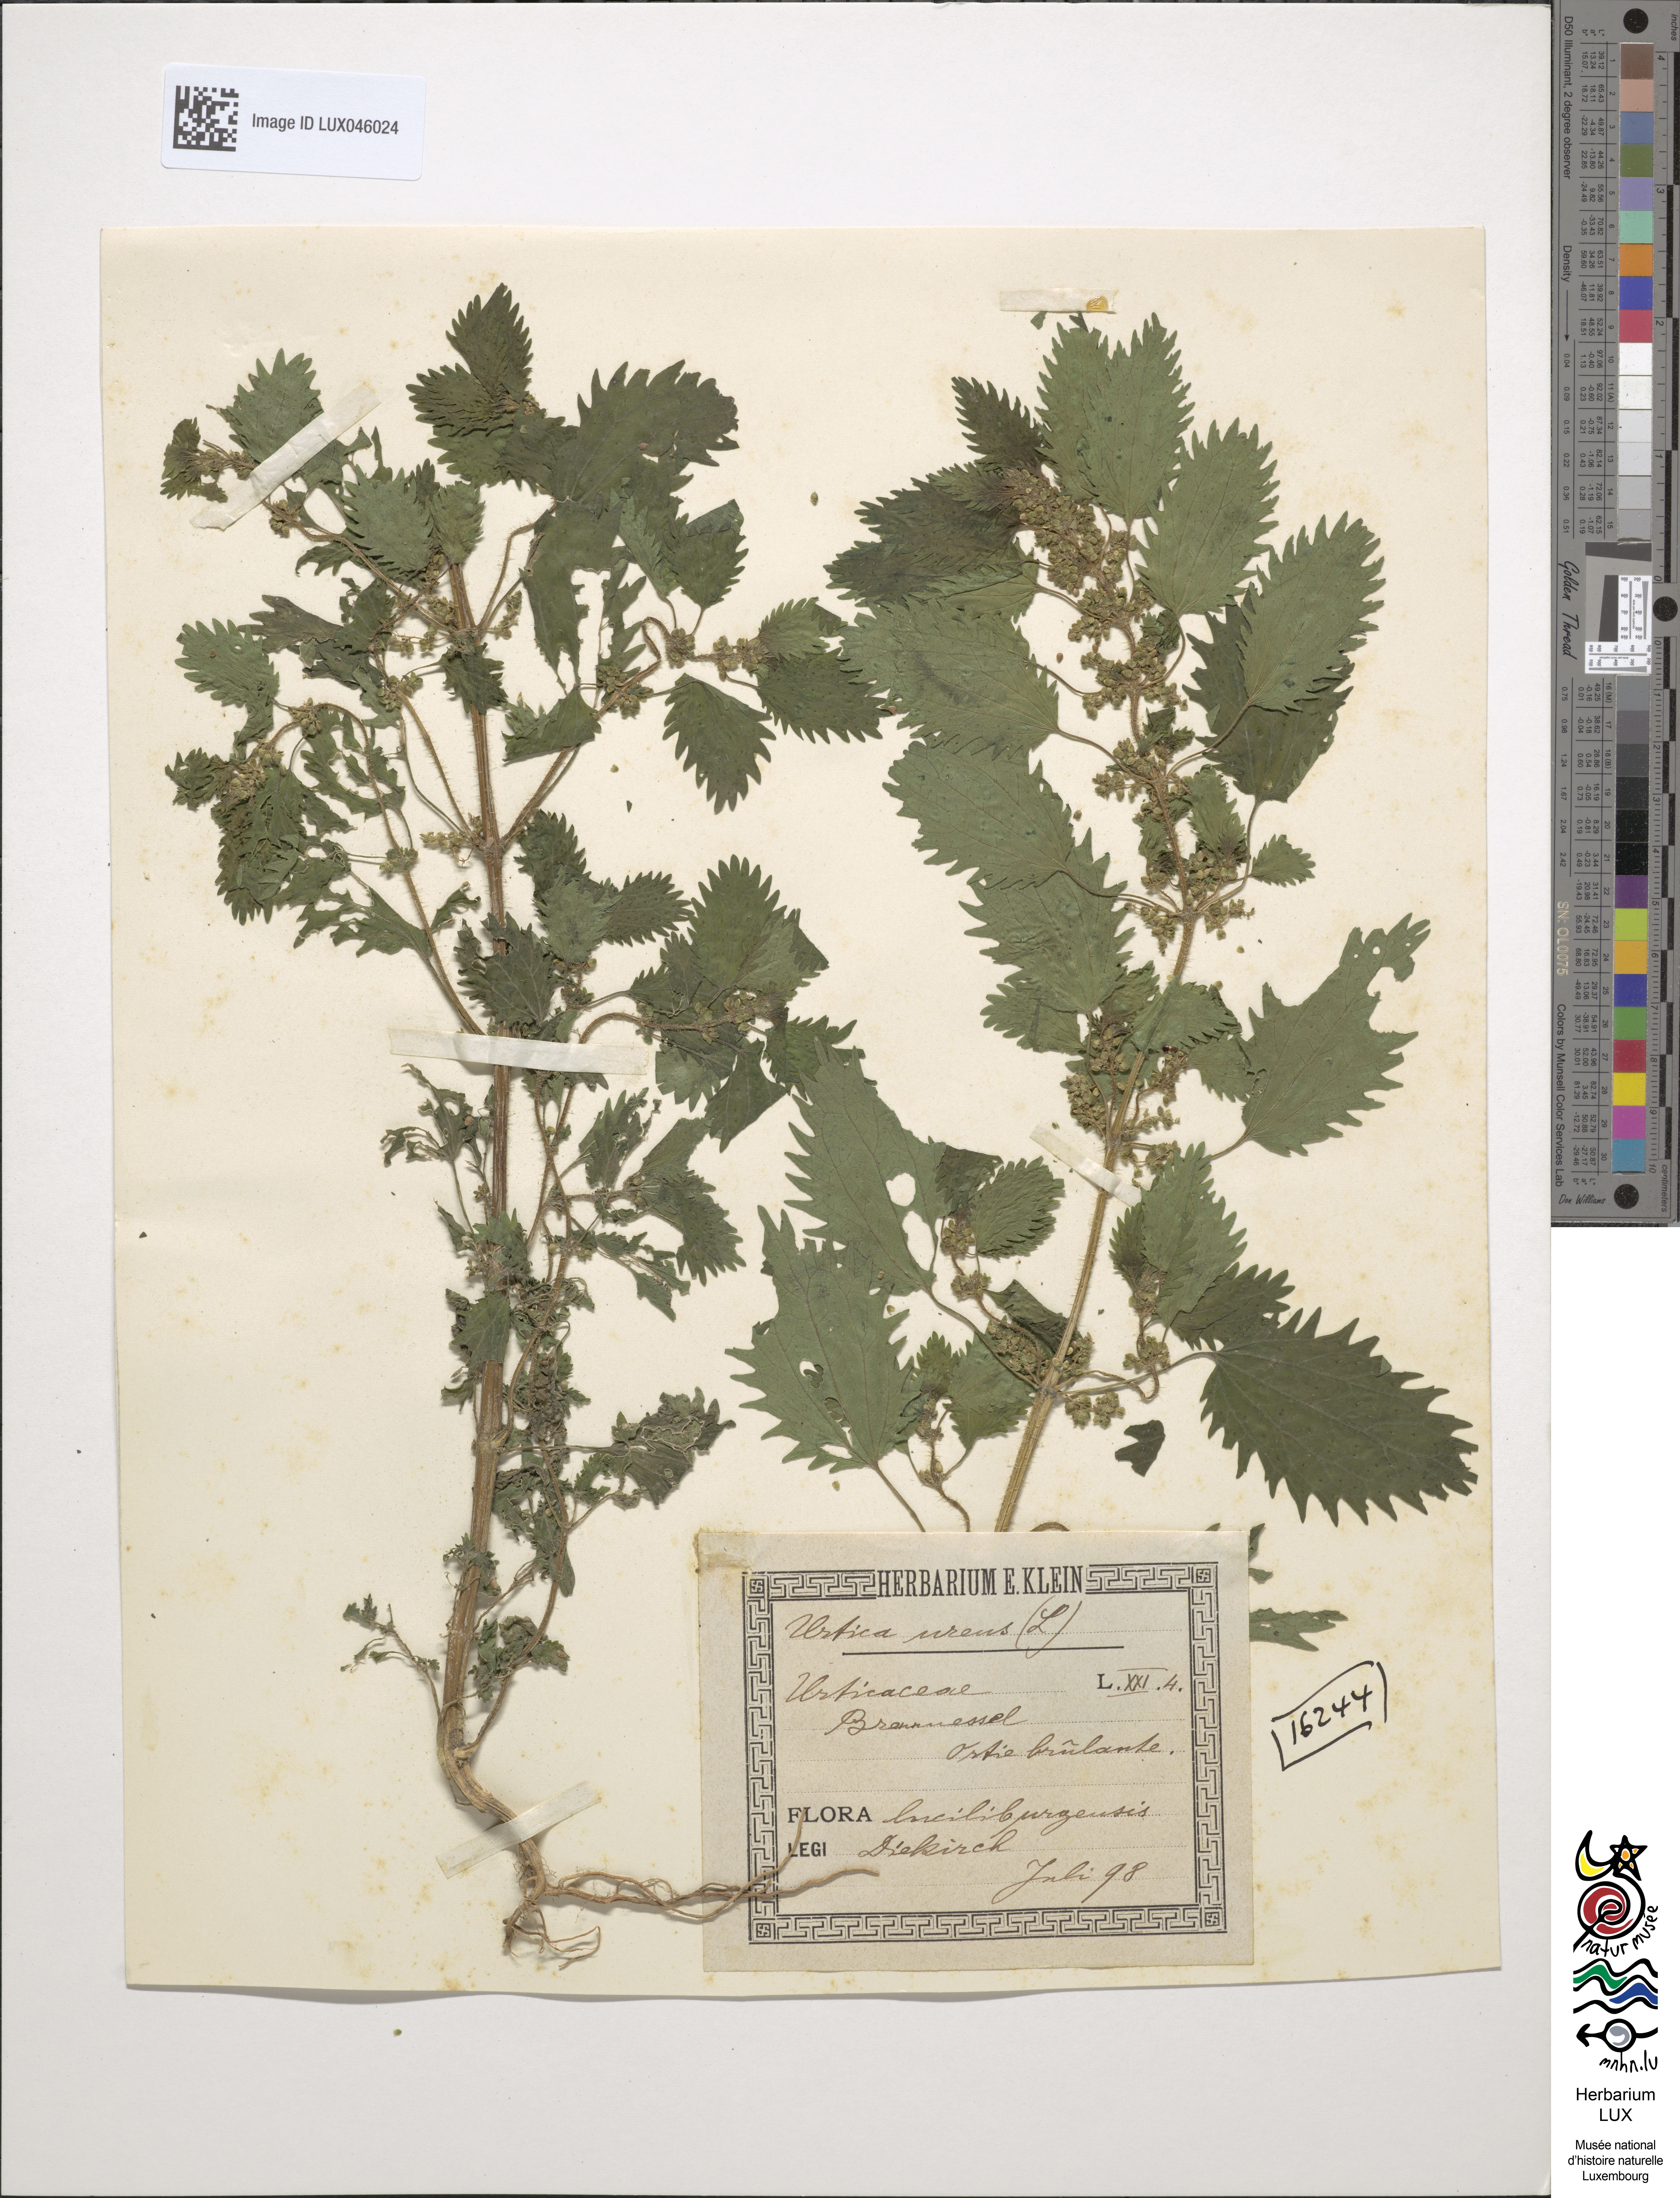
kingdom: Plantae
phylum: Tracheophyta
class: Magnoliopsida
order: Rosales
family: Urticaceae
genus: Urtica
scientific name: Urtica urens
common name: Dwarf nettle
